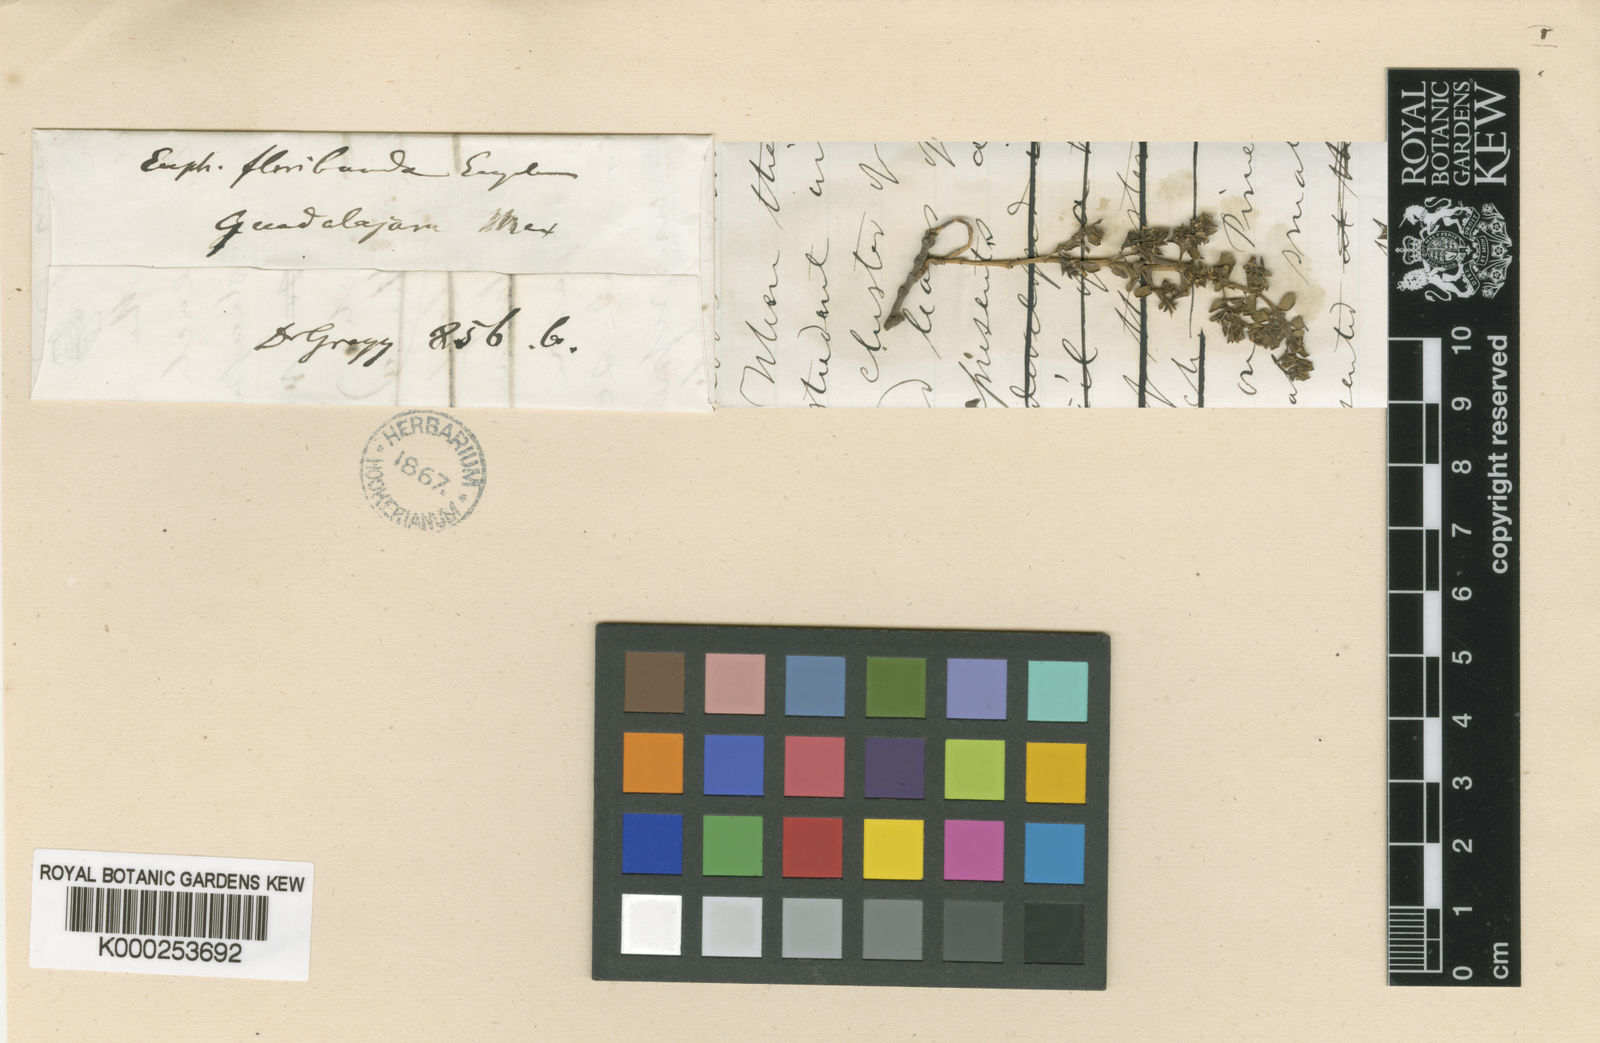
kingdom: Plantae
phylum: Tracheophyta
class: Magnoliopsida
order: Malpighiales
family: Euphorbiaceae
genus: Euphorbia
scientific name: Euphorbia floribunda
